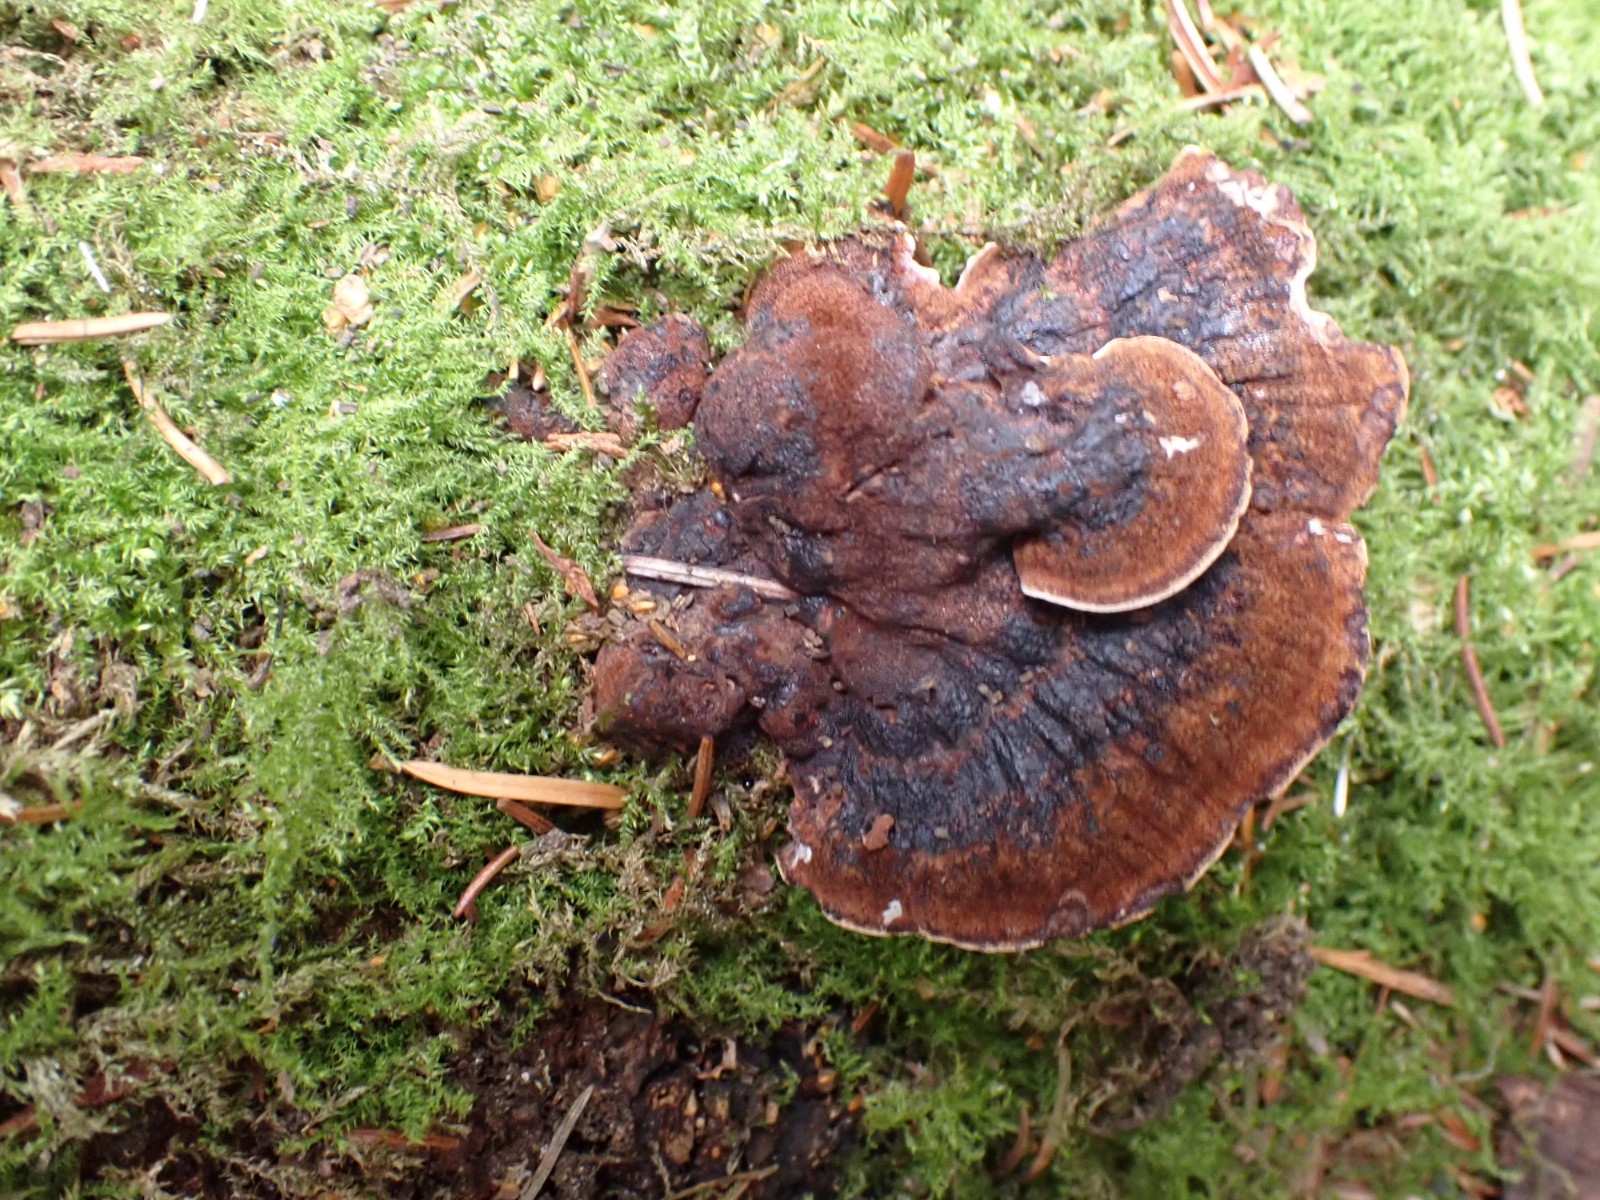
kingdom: Fungi
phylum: Basidiomycota
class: Agaricomycetes
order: Polyporales
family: Ischnodermataceae
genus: Ischnoderma
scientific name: Ischnoderma benzoinum
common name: gran-tjæreporesvamp
